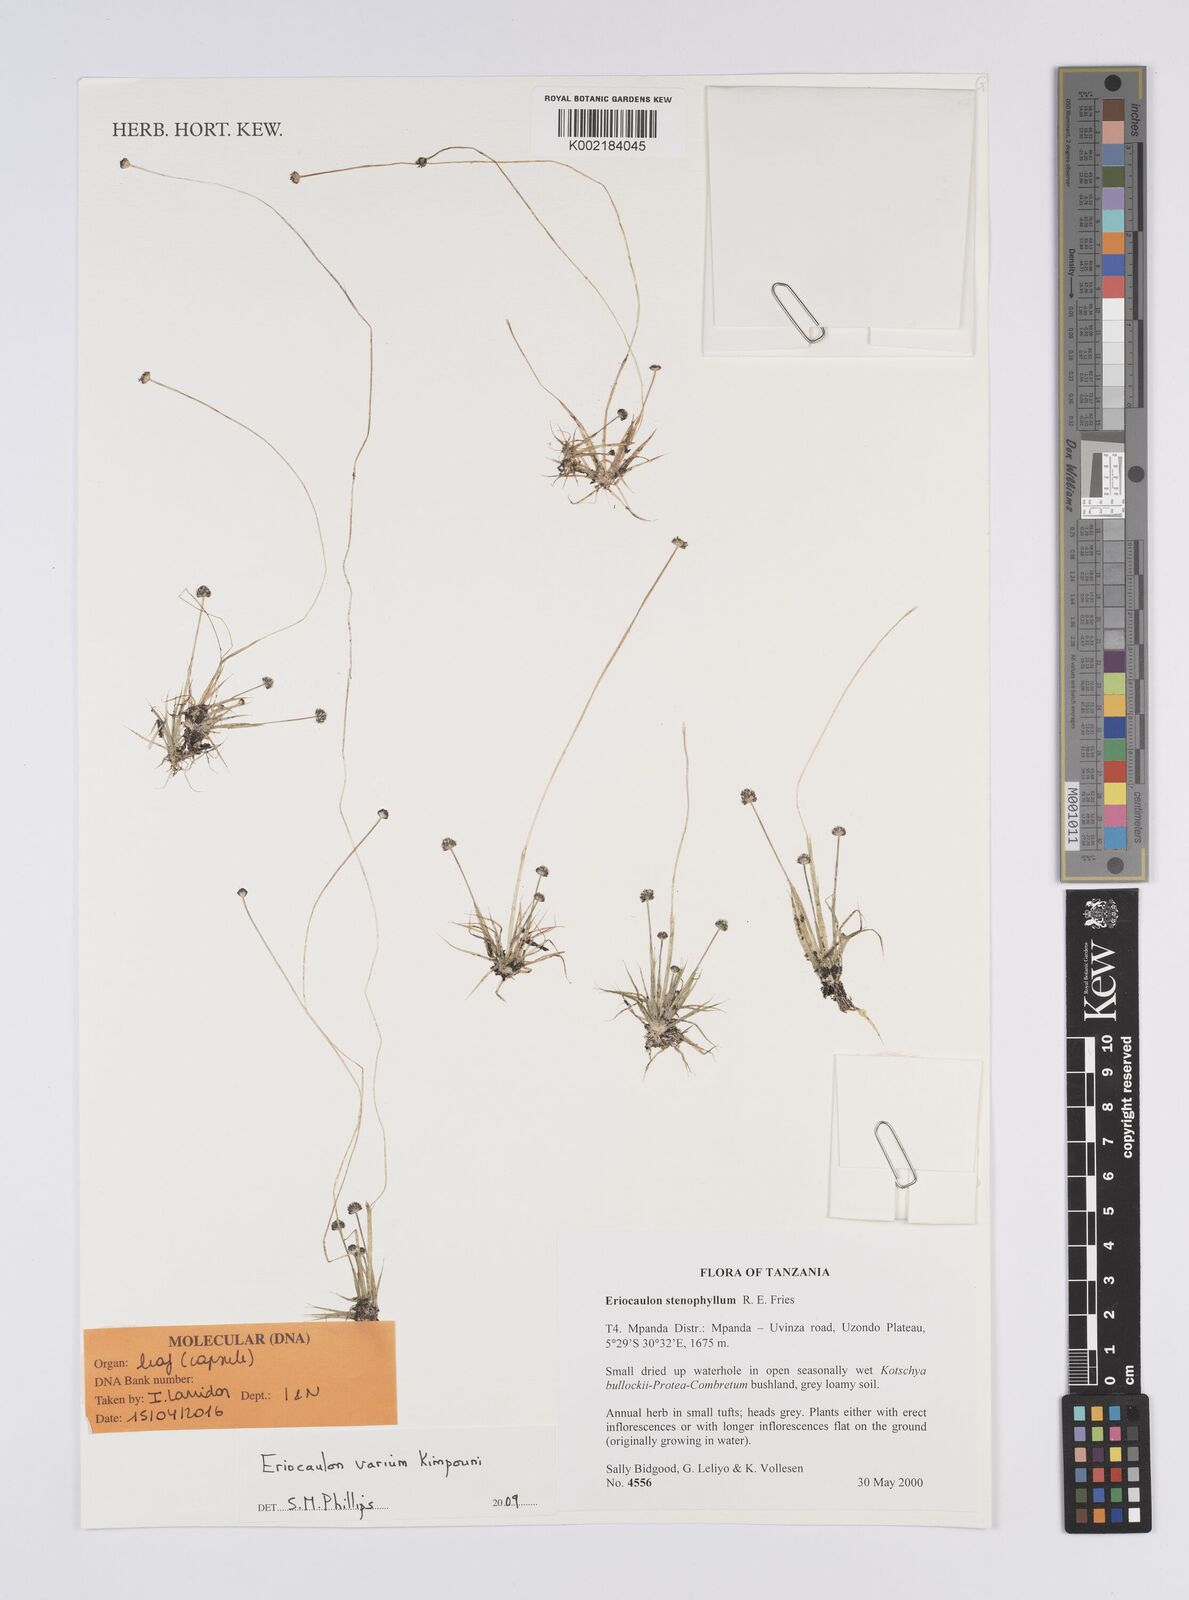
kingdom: Plantae
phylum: Tracheophyta
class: Liliopsida
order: Poales
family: Eriocaulaceae
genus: Eriocaulon
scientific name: Eriocaulon varium
